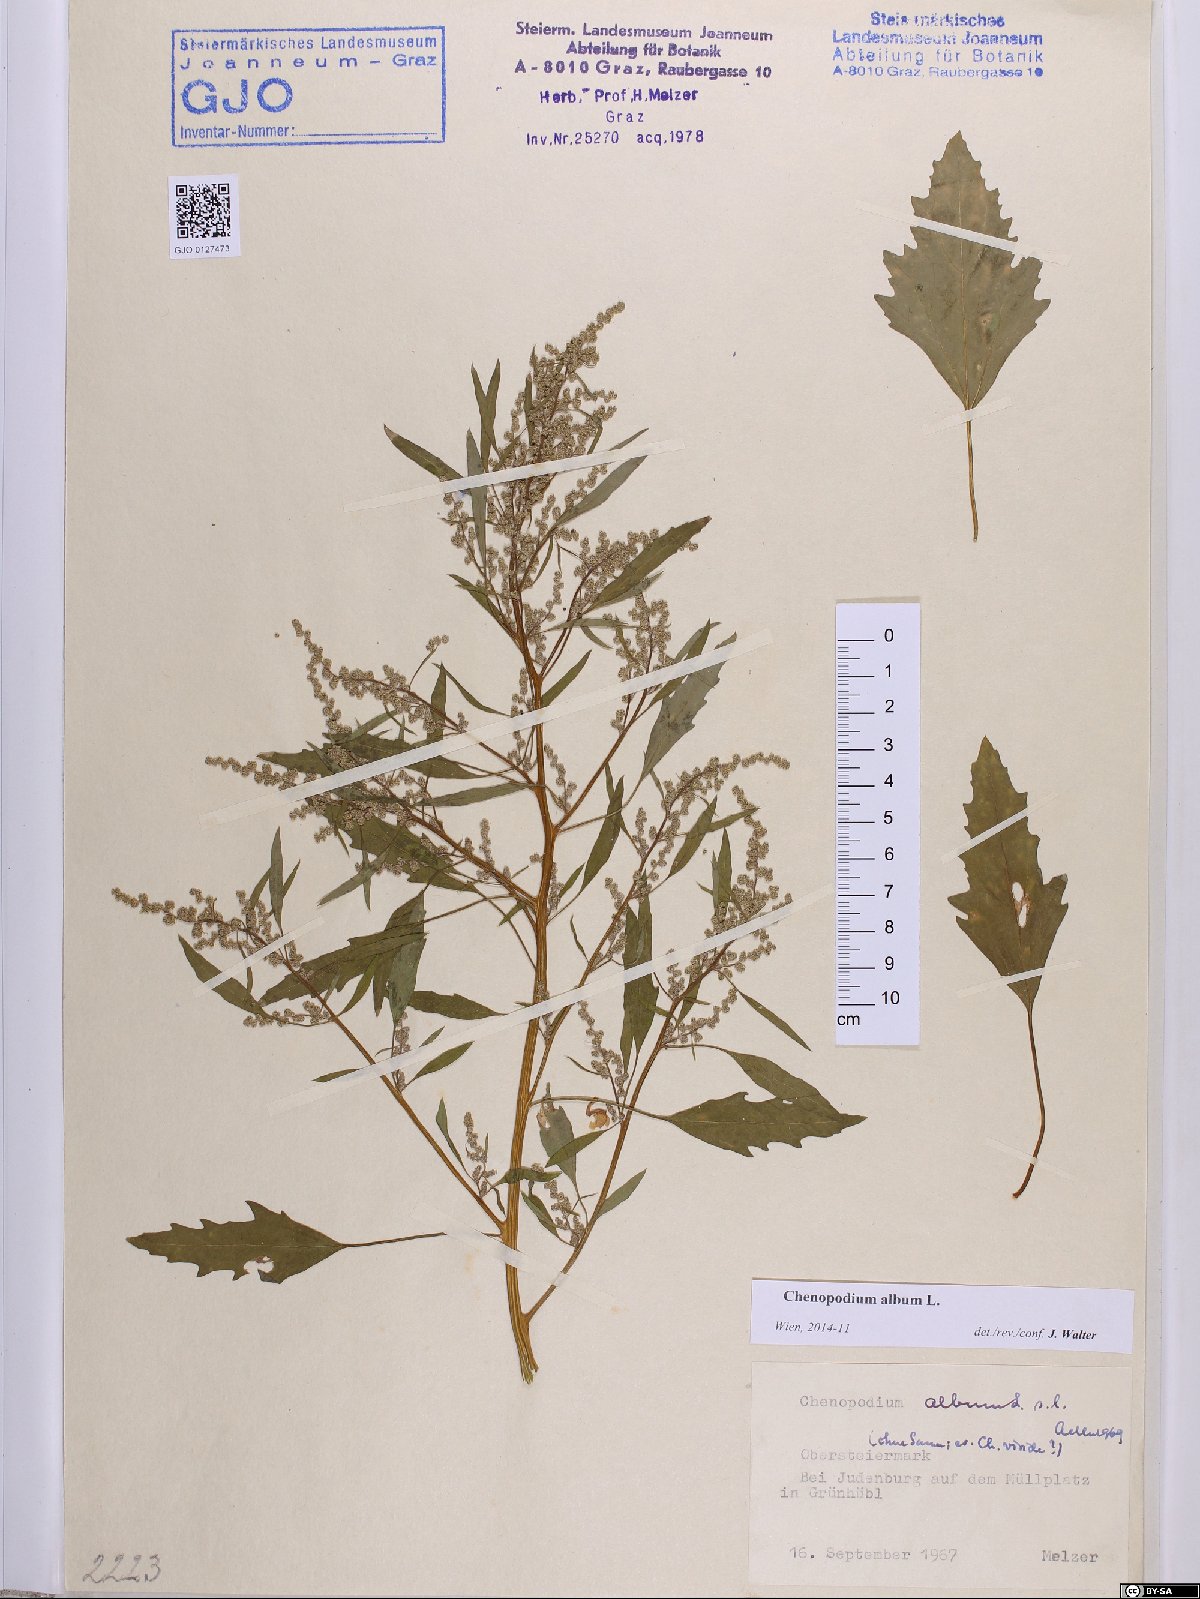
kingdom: Plantae
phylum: Tracheophyta
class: Magnoliopsida
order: Caryophyllales
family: Amaranthaceae
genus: Chenopodium
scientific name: Chenopodium album
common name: Fat-hen
